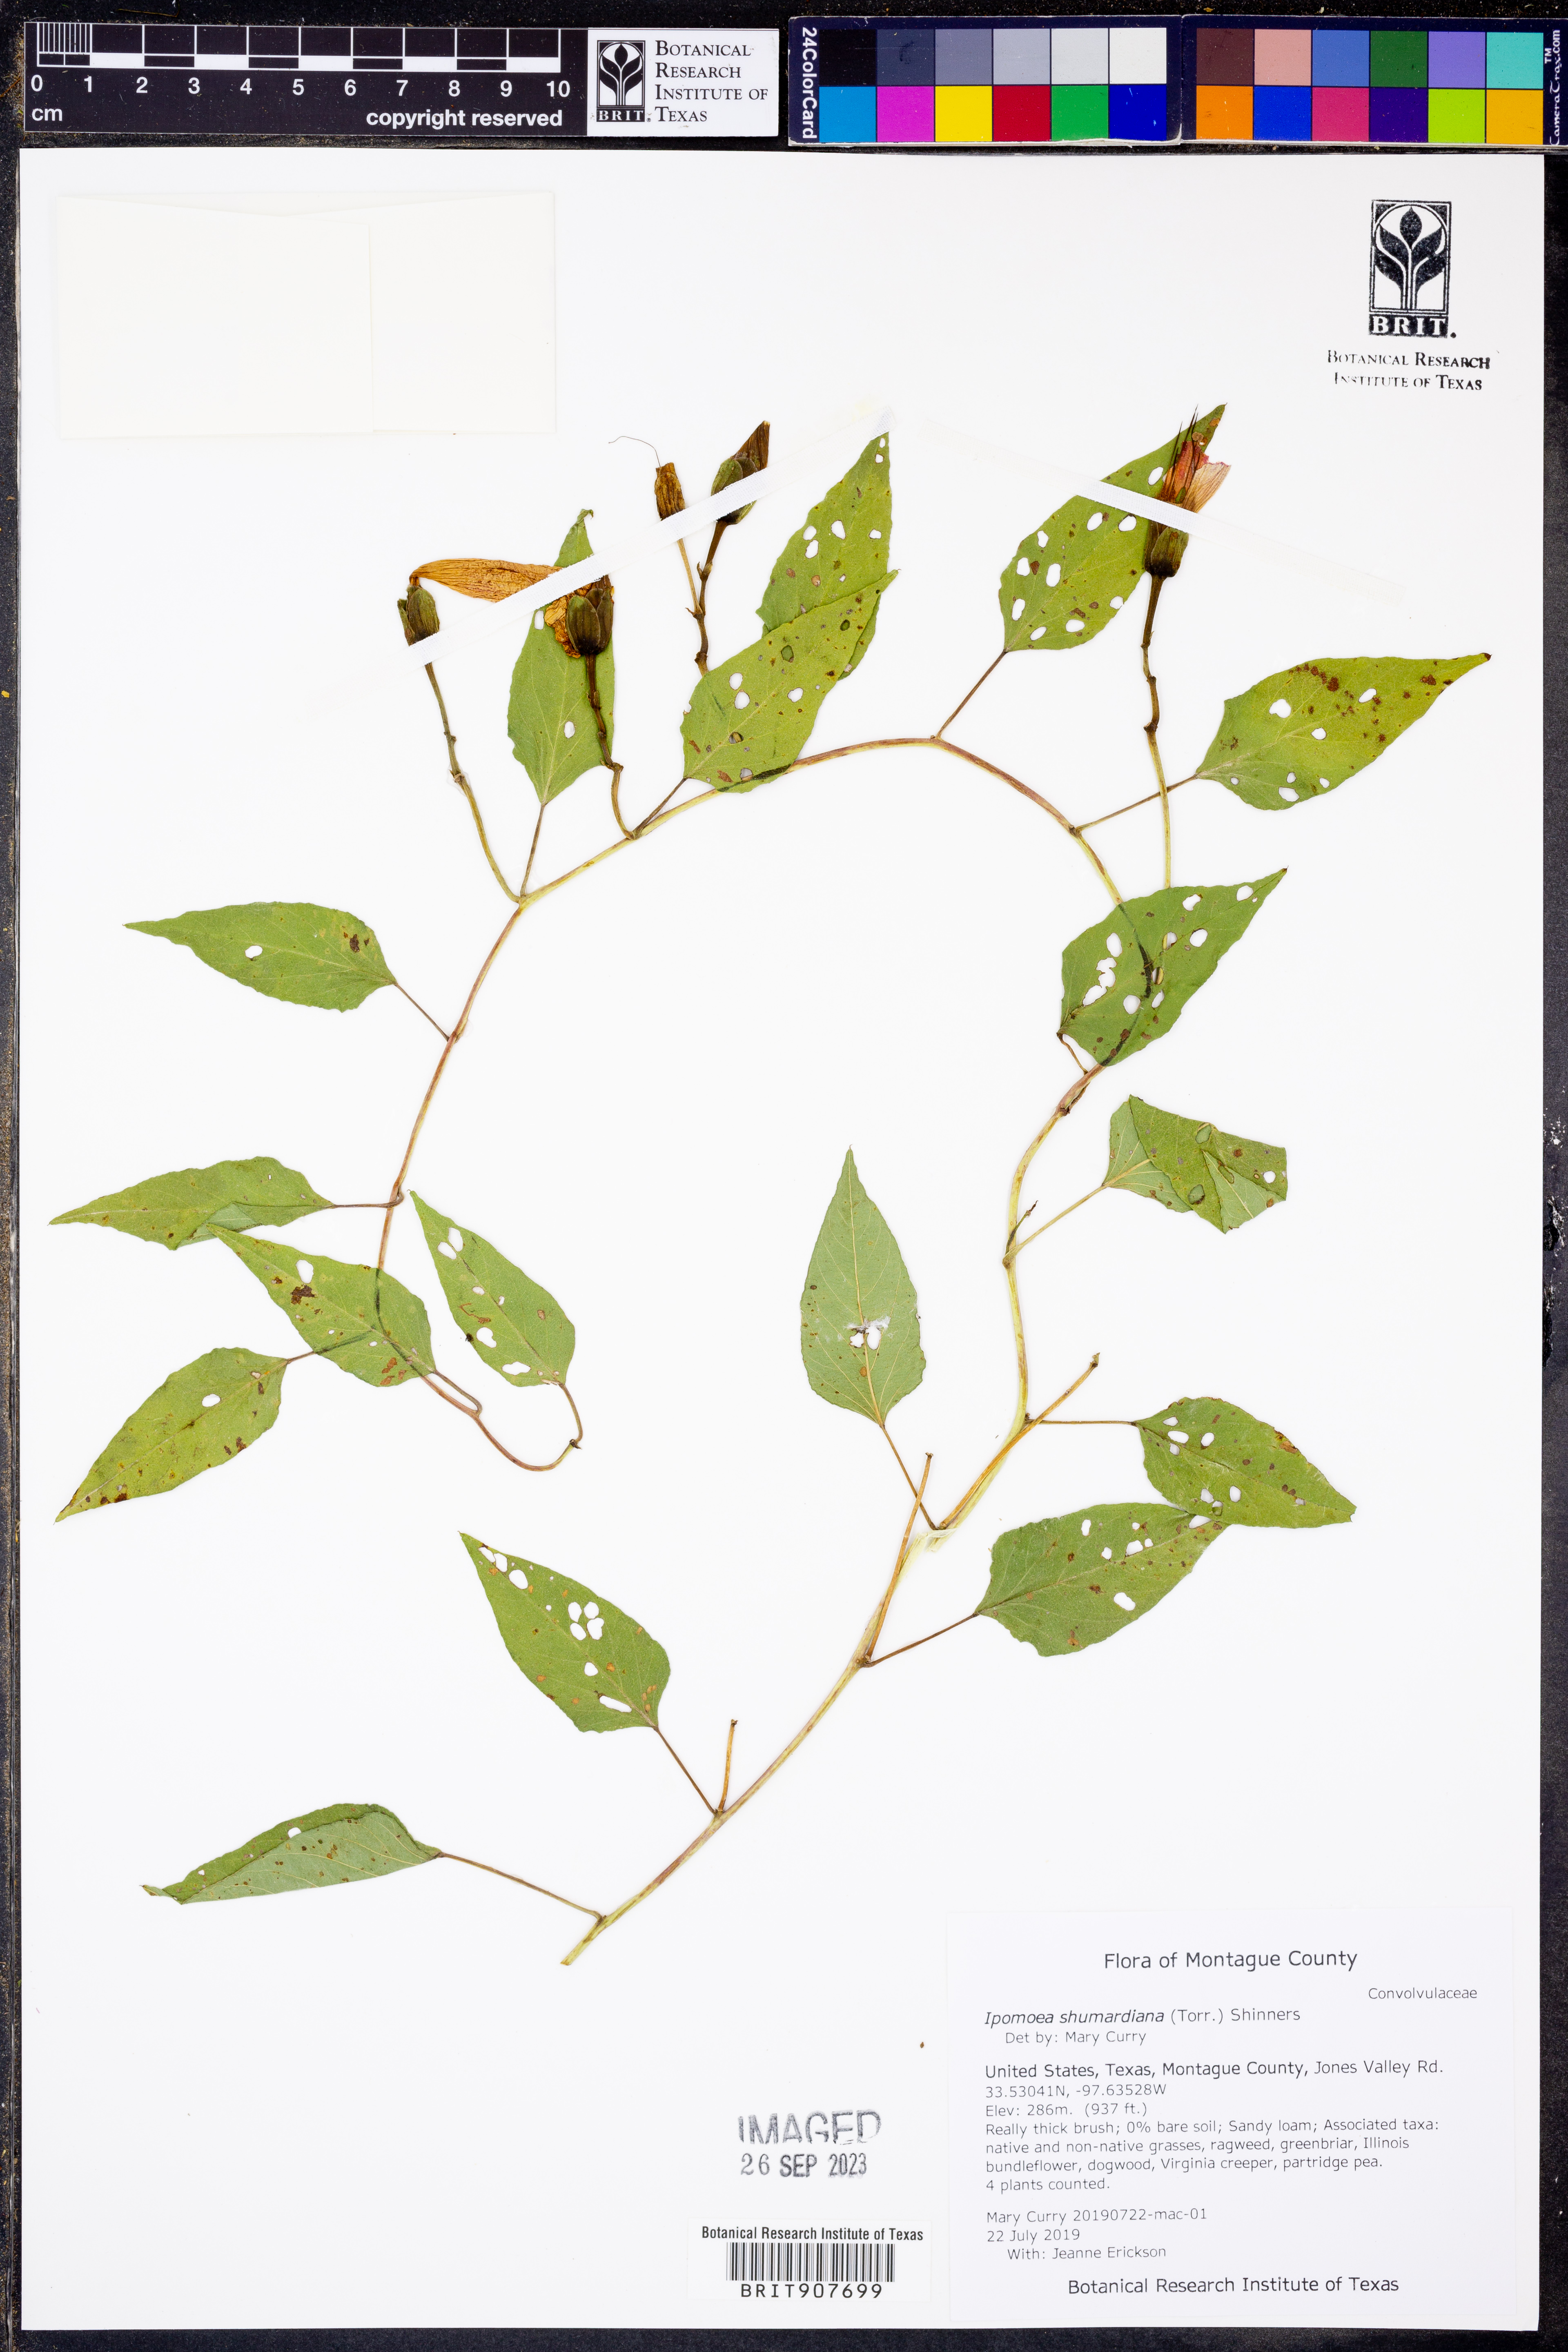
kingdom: Plantae
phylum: Tracheophyta
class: Magnoliopsida
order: Solanales
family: Convolvulaceae
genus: Ipomoea
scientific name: Ipomoea shumardiana
